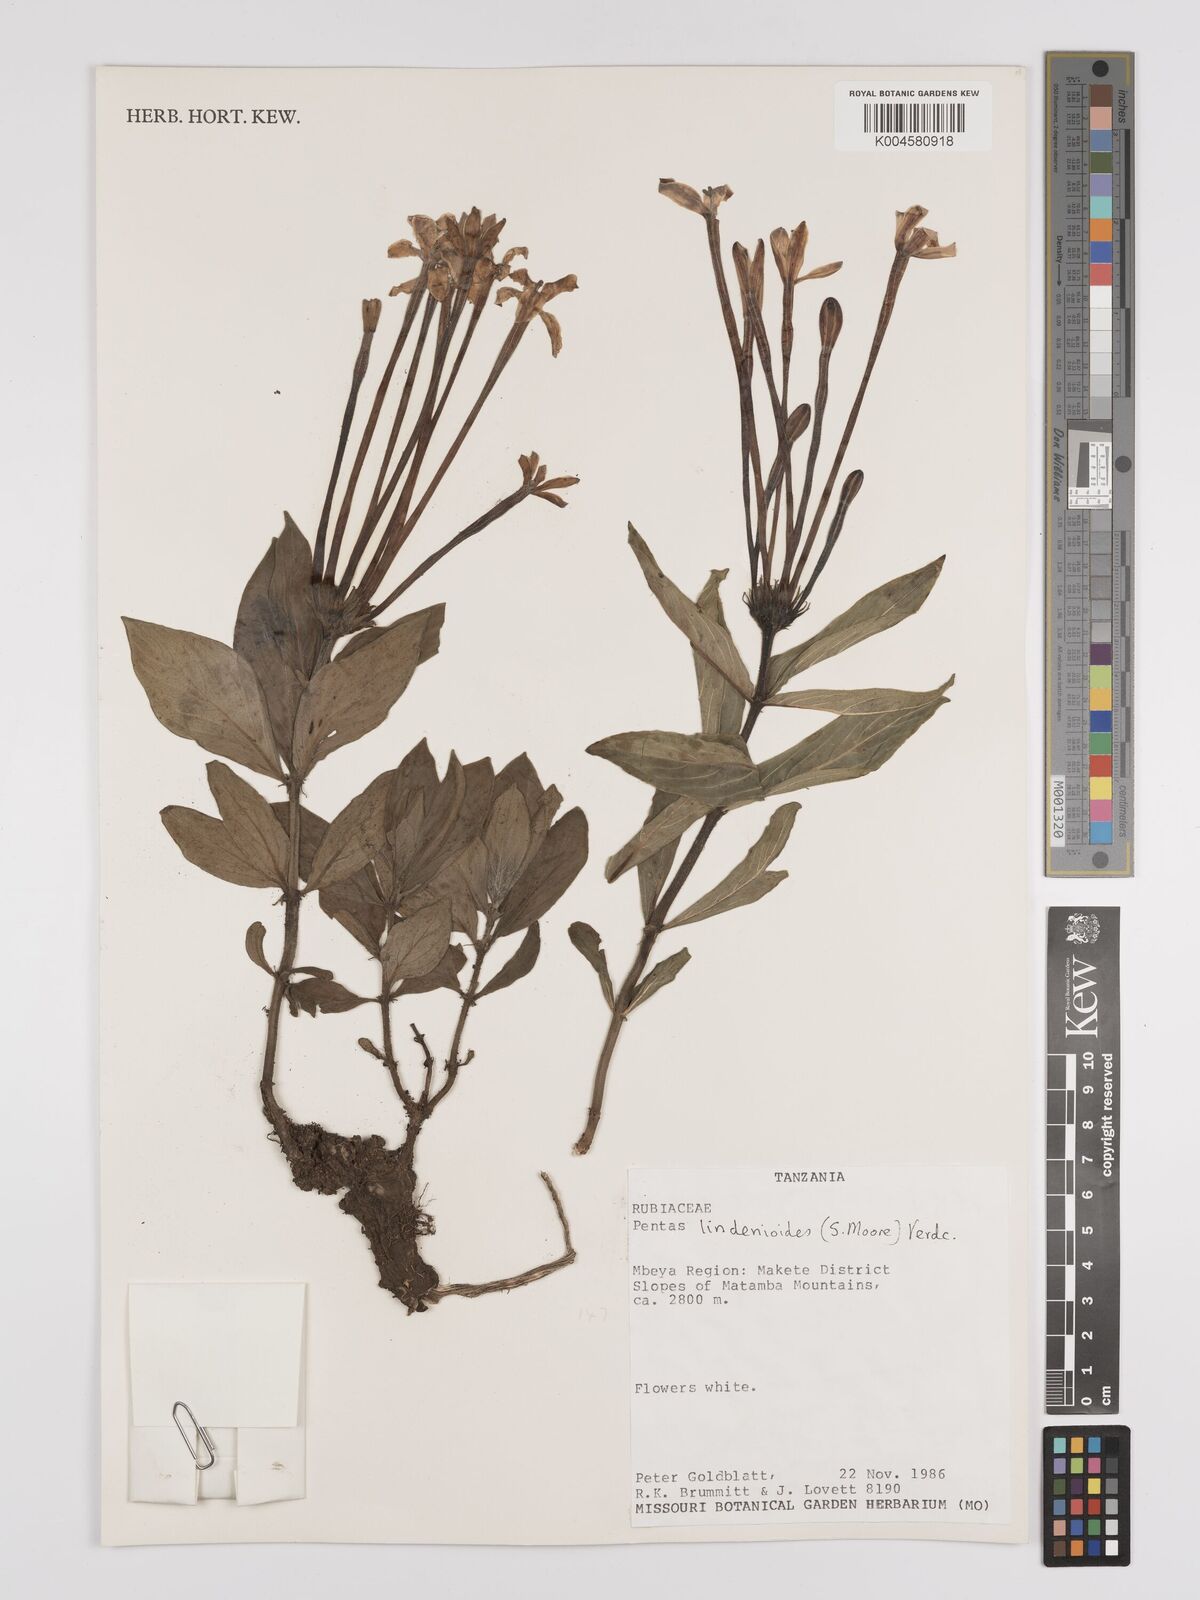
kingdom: Plantae
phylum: Tracheophyta
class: Magnoliopsida
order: Gentianales
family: Rubiaceae
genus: Dolichopentas
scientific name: Dolichopentas lindenioides
